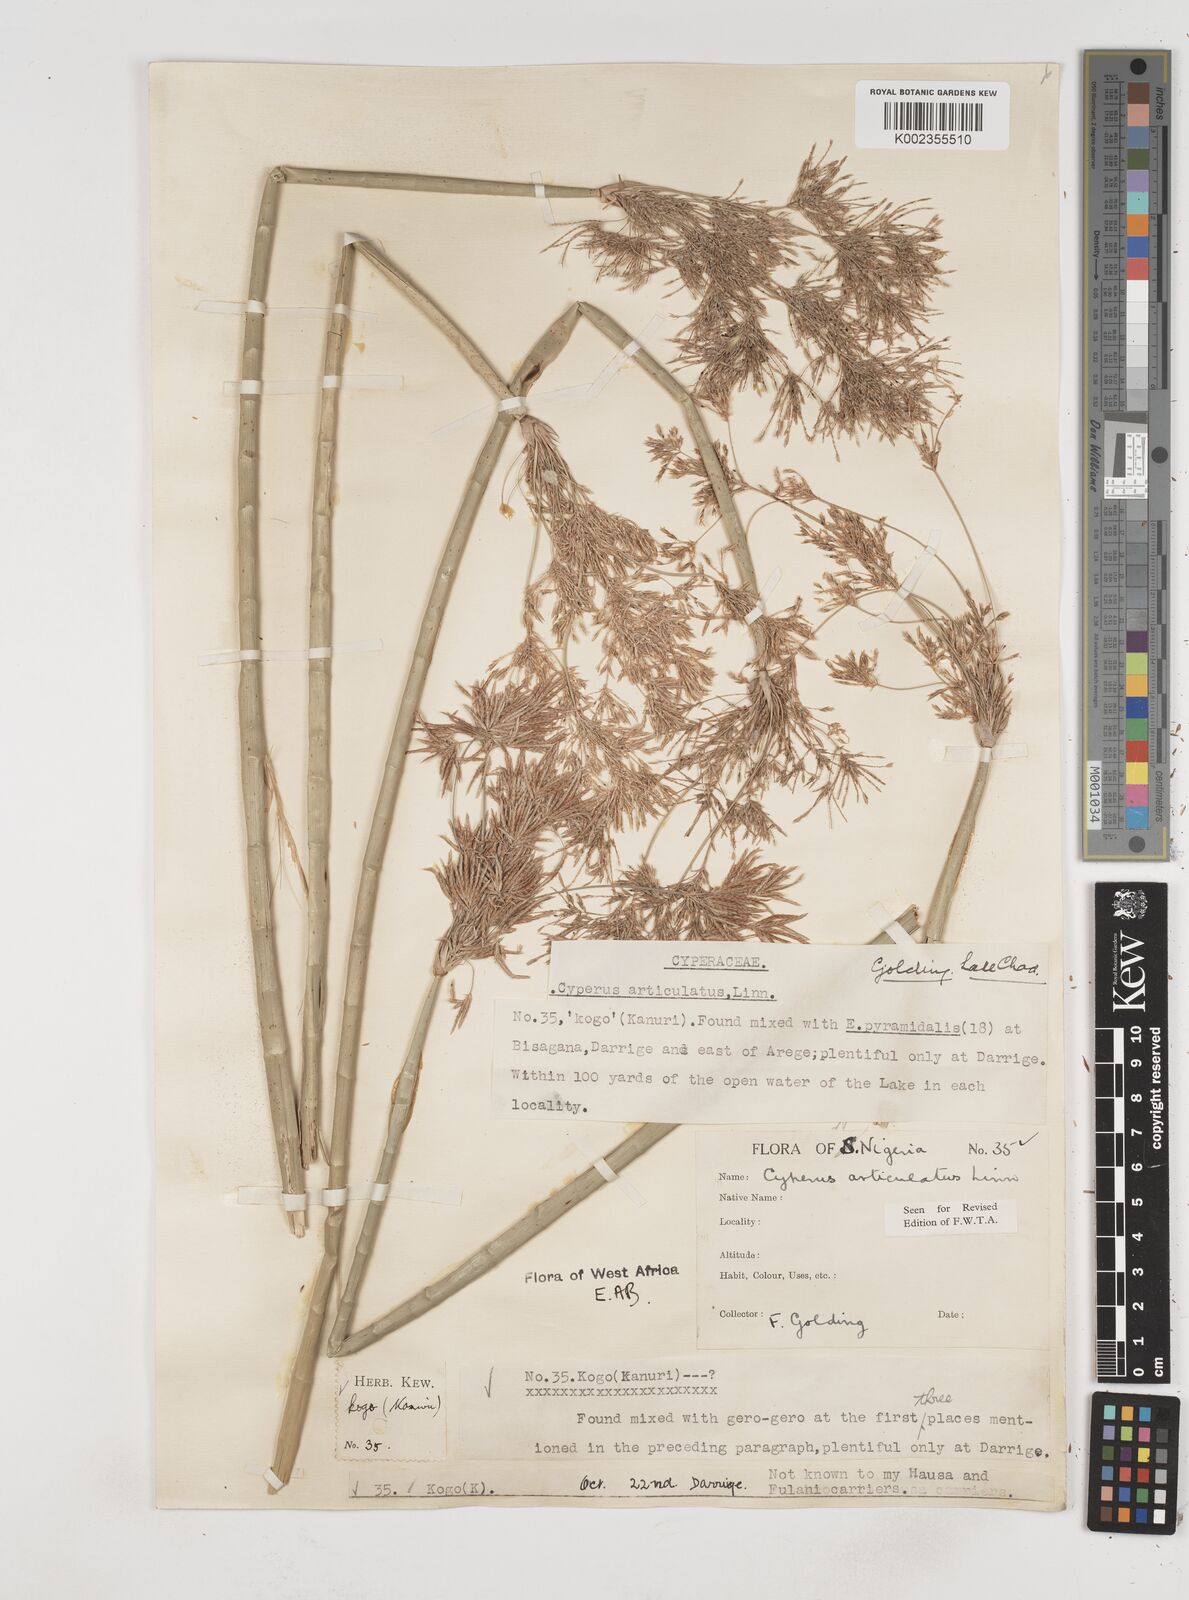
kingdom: Plantae
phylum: Tracheophyta
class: Liliopsida
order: Poales
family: Cyperaceae
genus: Cyperus
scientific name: Cyperus articulatus
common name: Jointed flatsedge
